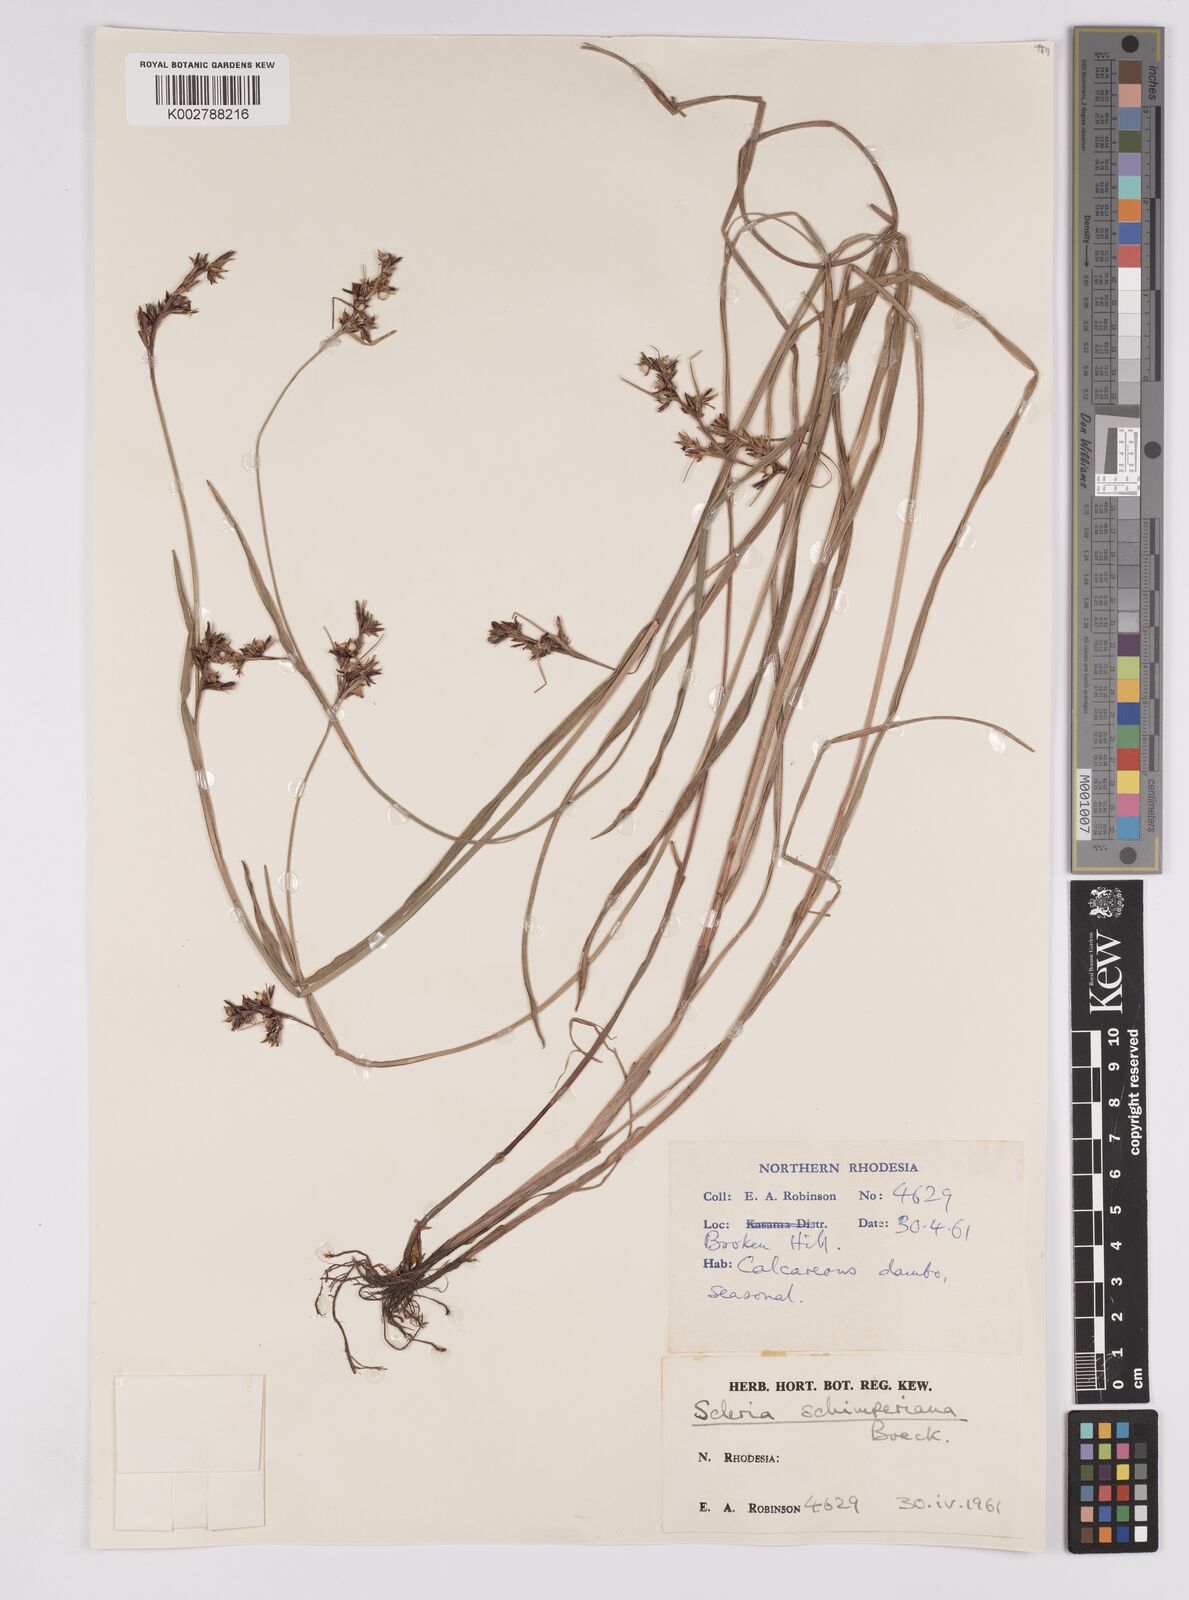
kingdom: Plantae
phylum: Tracheophyta
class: Liliopsida
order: Poales
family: Cyperaceae
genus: Scleria
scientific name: Scleria schimperiana
